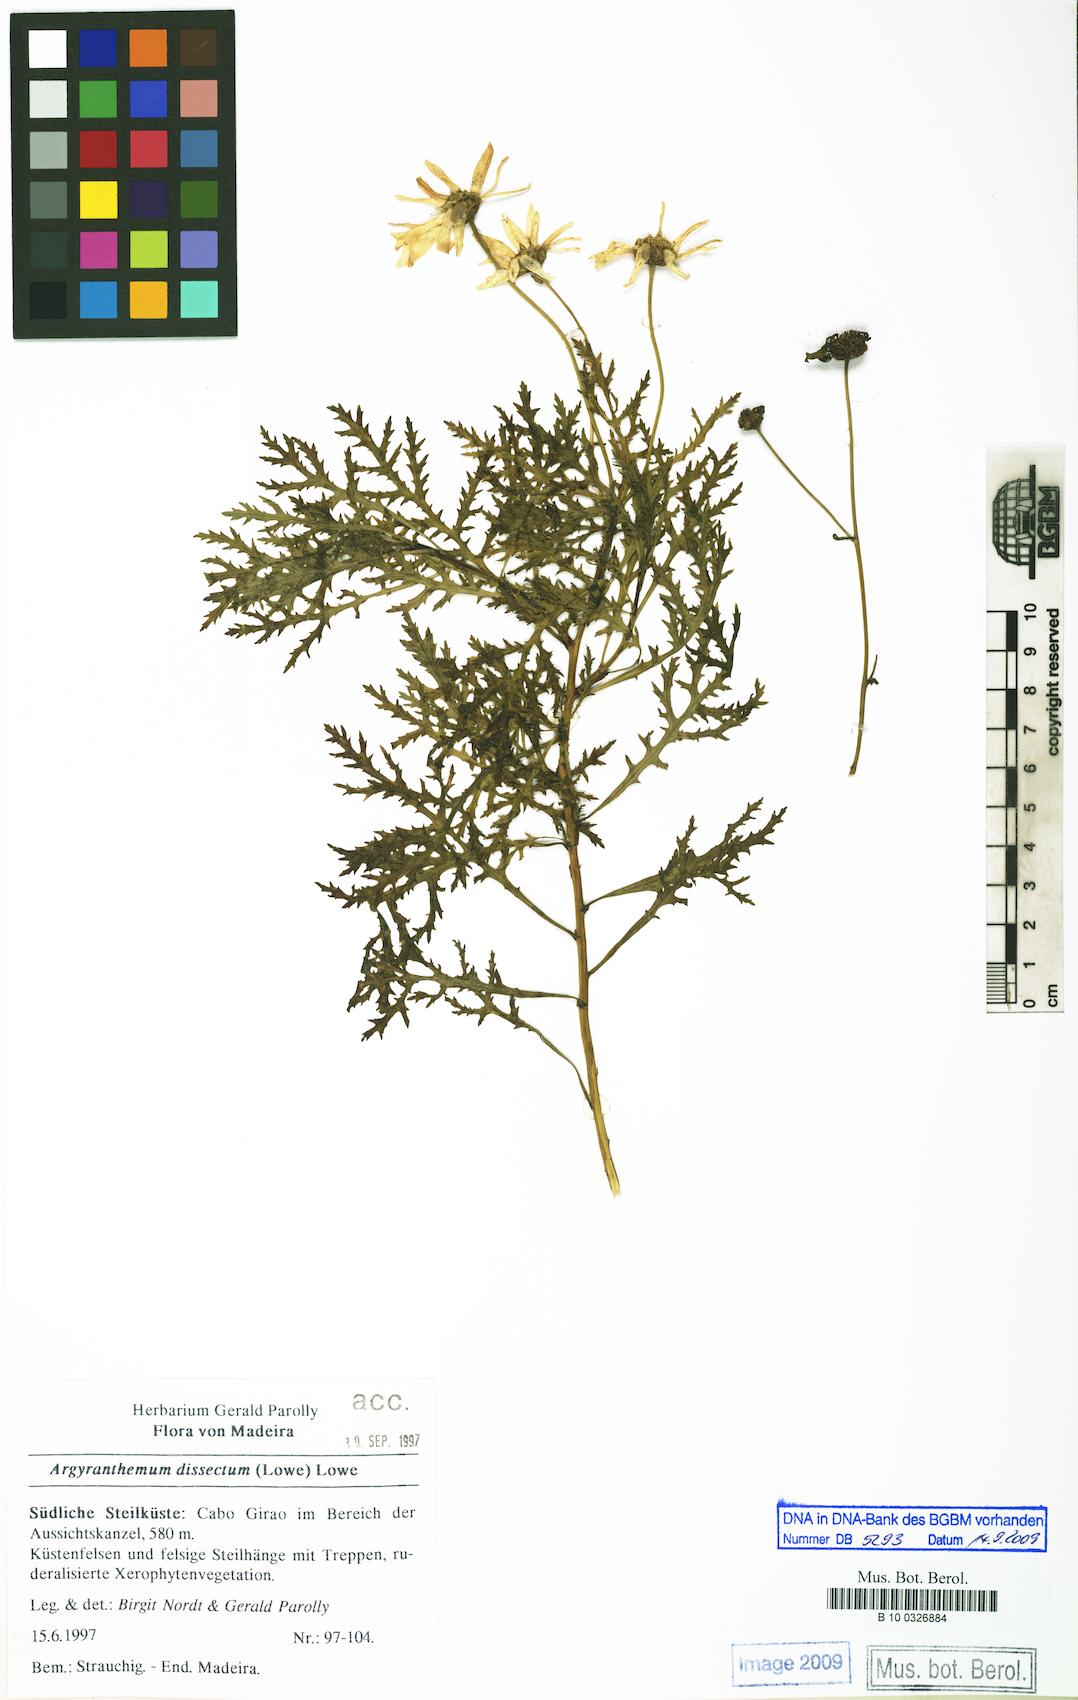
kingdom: Plantae
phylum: Tracheophyta
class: Magnoliopsida
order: Asterales
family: Asteraceae
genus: Argyranthemum
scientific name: Argyranthemum dissectum
